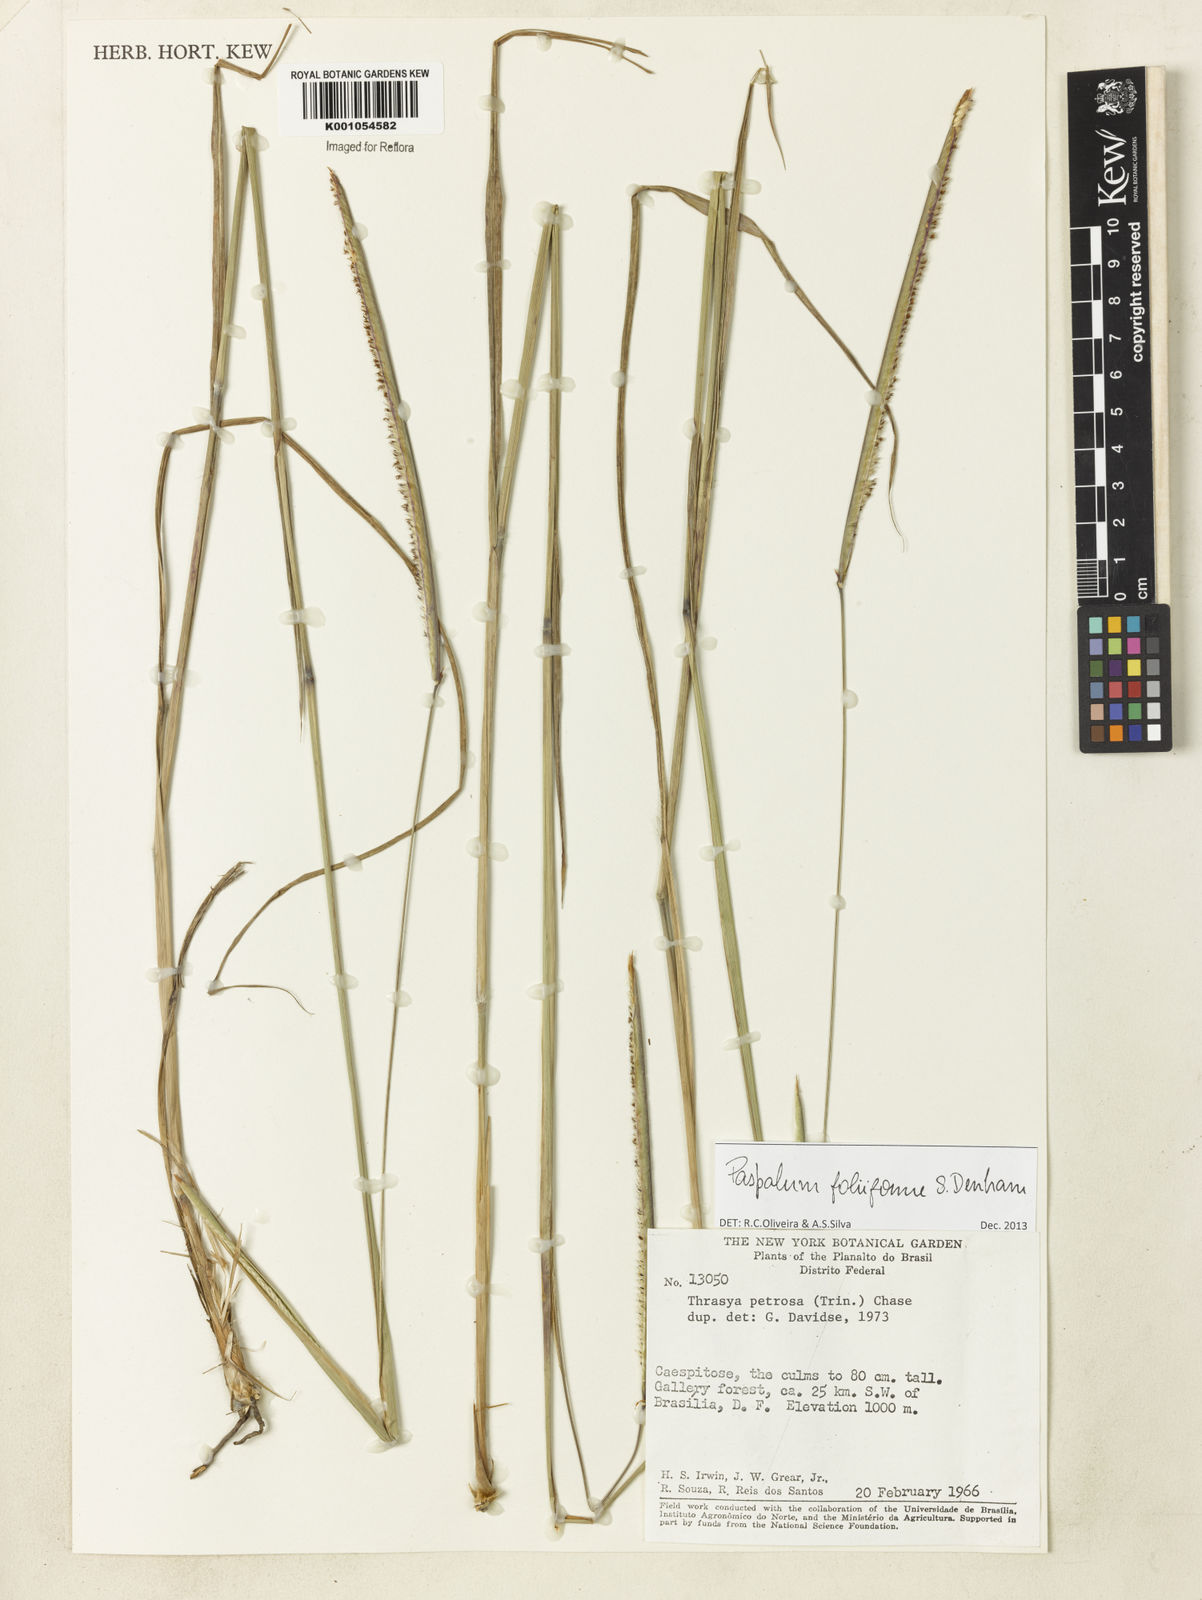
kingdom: Plantae
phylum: Tracheophyta
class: Liliopsida
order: Poales
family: Poaceae
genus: Paspalum
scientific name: Paspalum foliiforme
